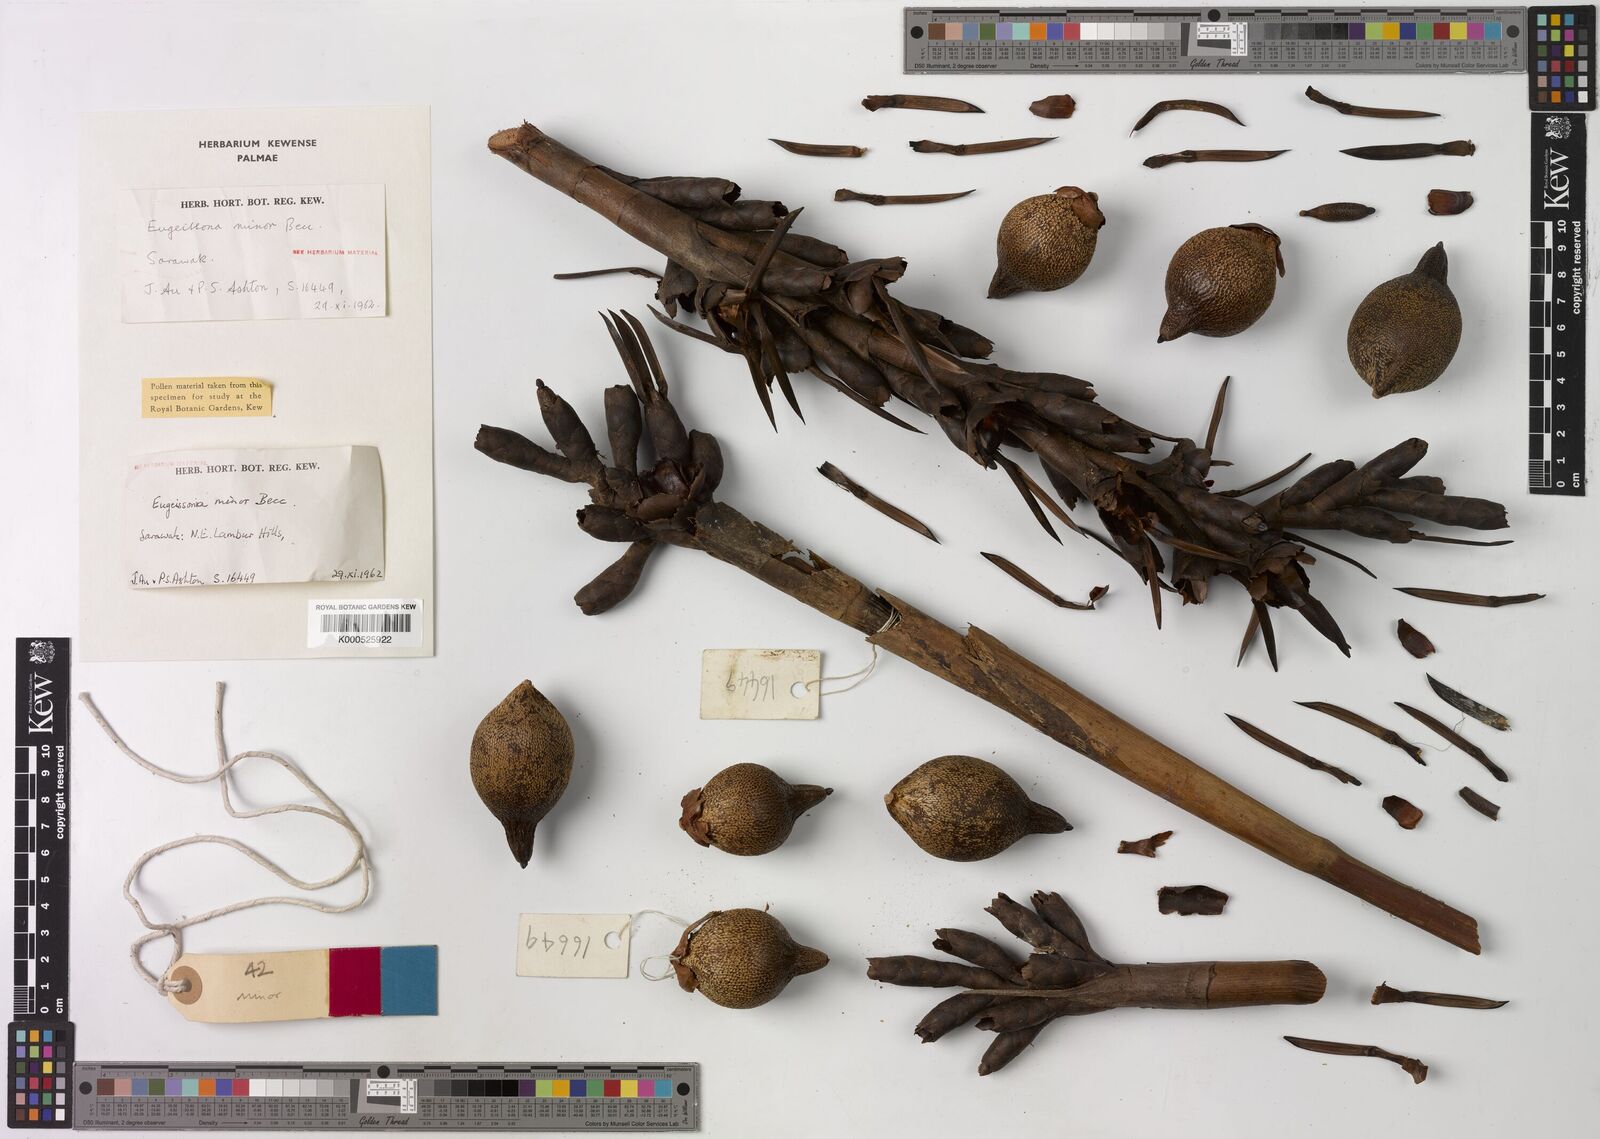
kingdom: Plantae
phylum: Tracheophyta
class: Liliopsida
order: Arecales
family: Arecaceae
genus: Eugeissona
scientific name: Eugeissona minor
